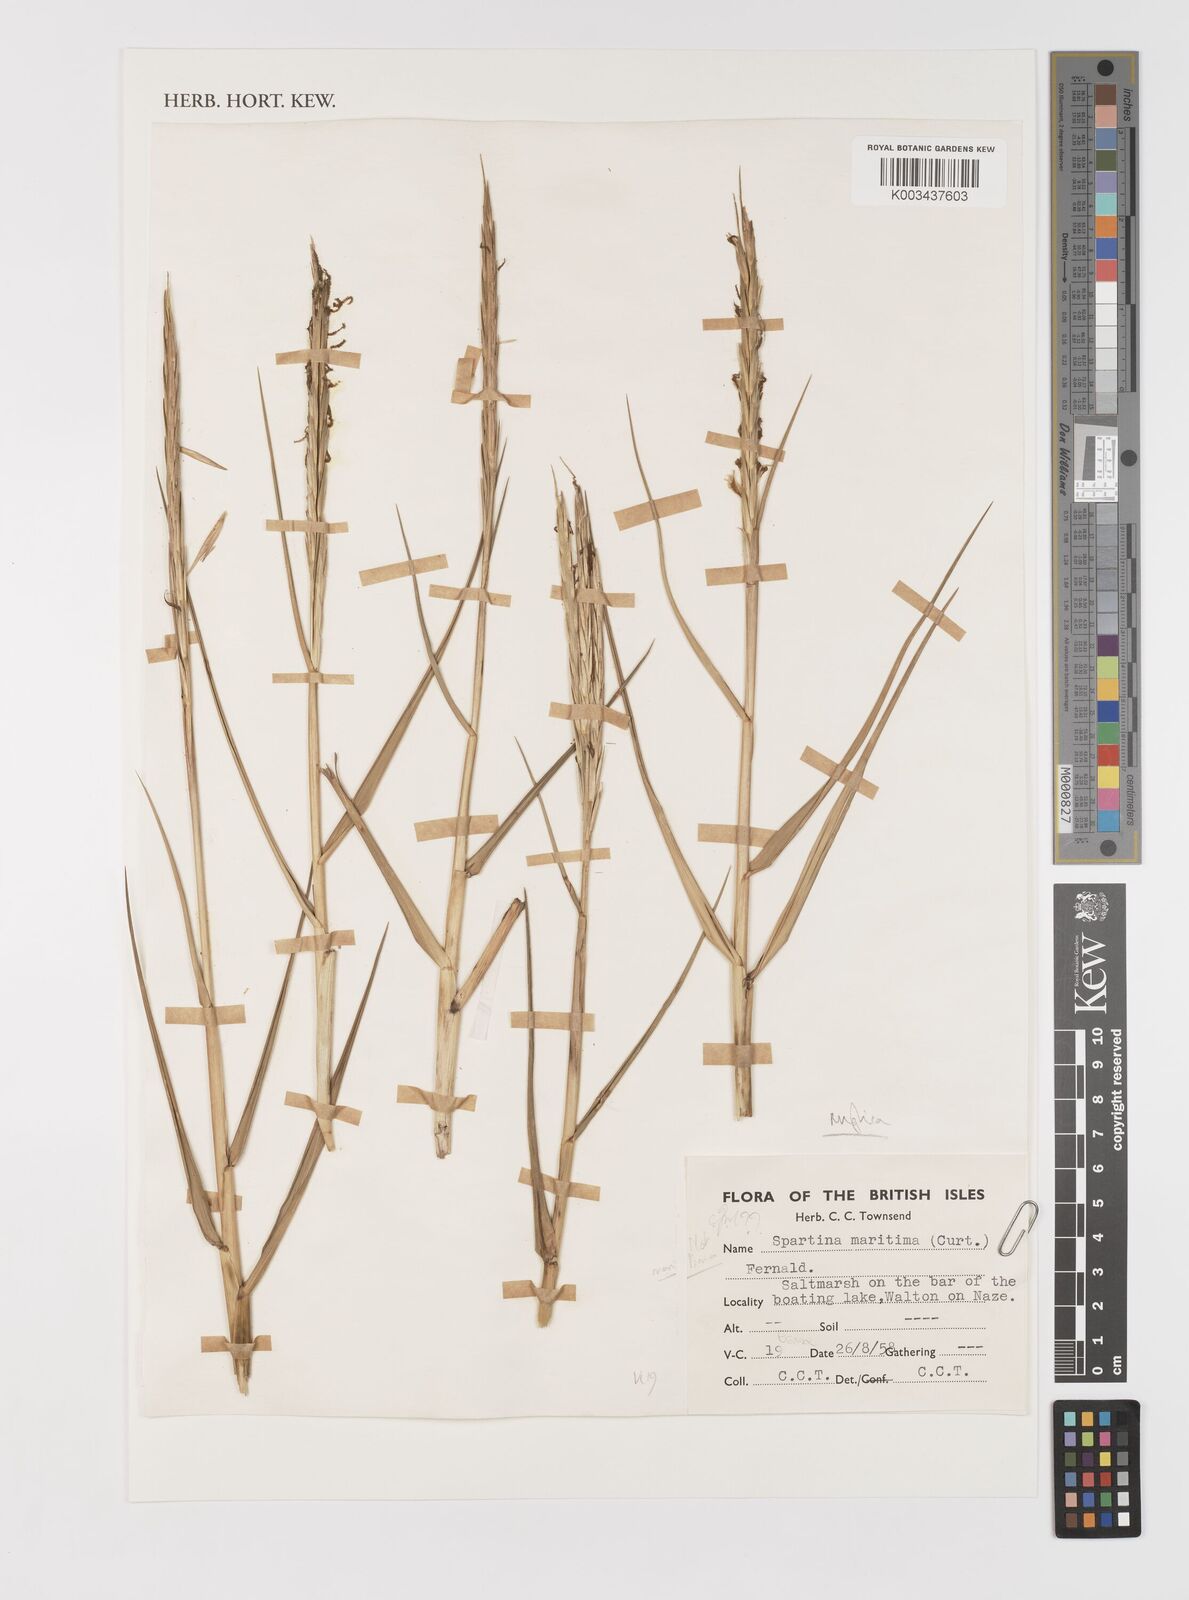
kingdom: Plantae
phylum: Tracheophyta
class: Liliopsida
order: Poales
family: Poaceae
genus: Sporobolus
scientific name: Sporobolus anglicus
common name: English cordgrass
